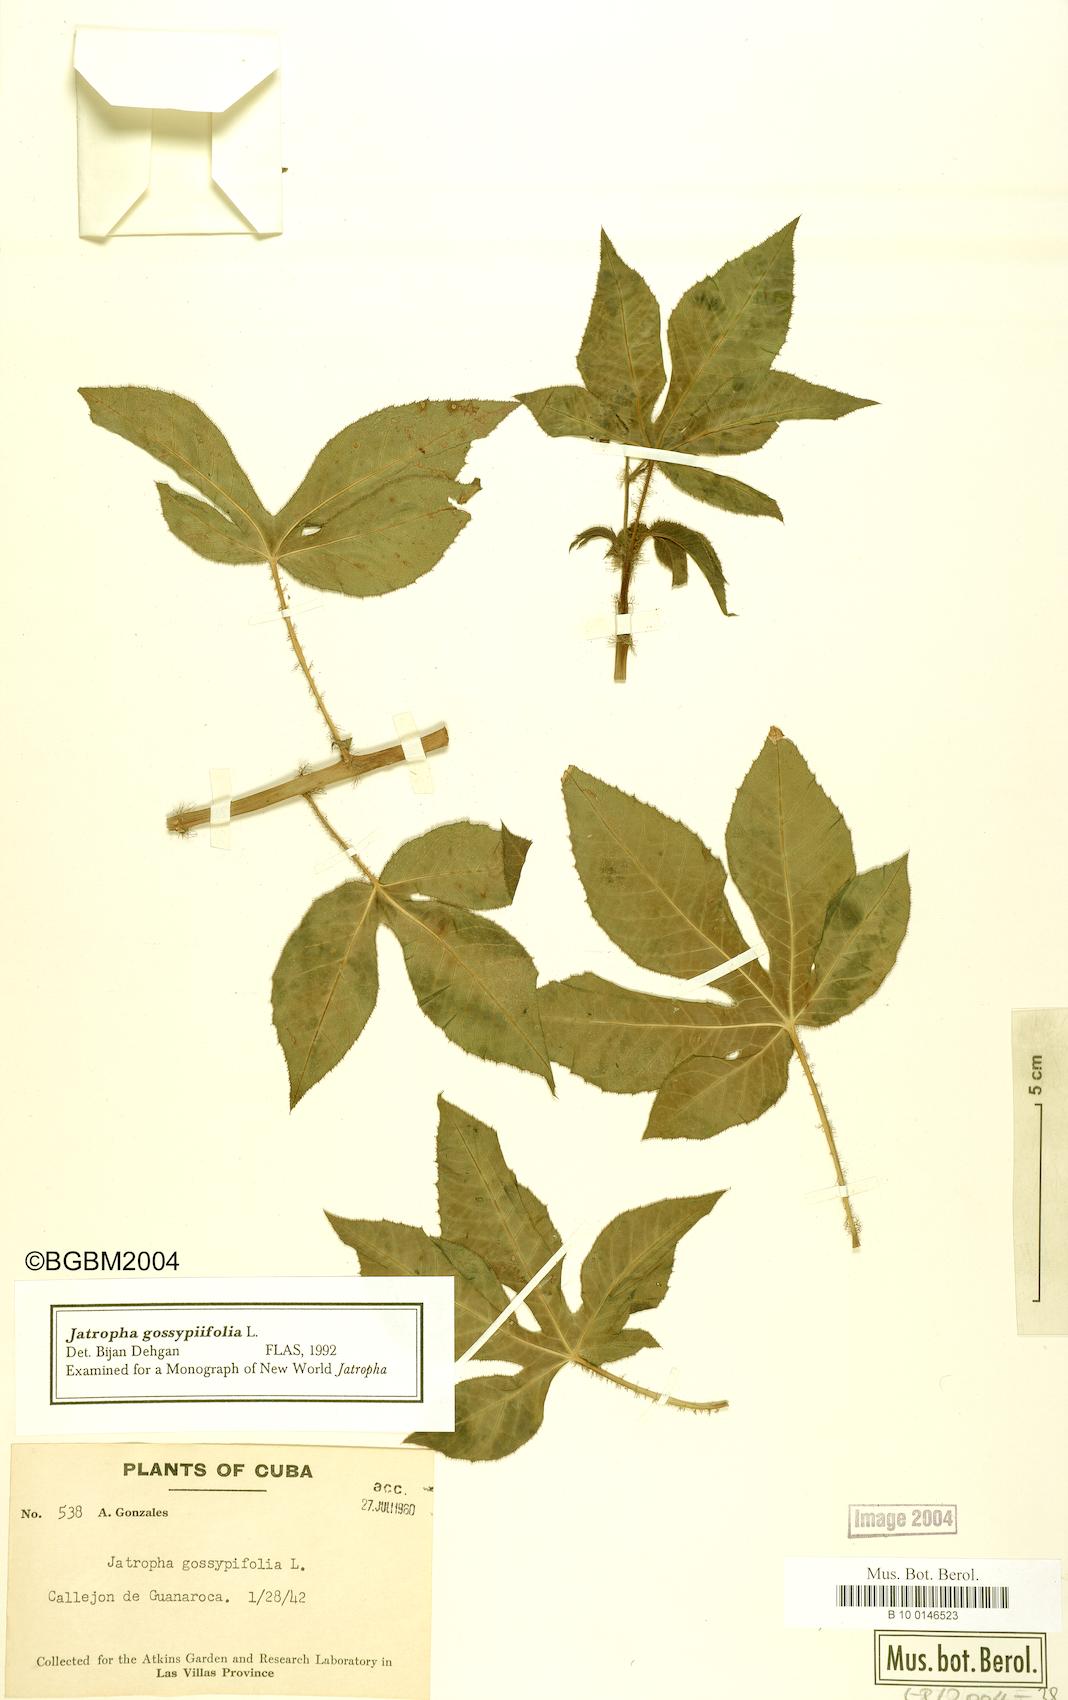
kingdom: Plantae
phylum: Tracheophyta
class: Magnoliopsida
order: Malpighiales
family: Euphorbiaceae
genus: Jatropha
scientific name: Jatropha gossypiifolia
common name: Bellyache bush
